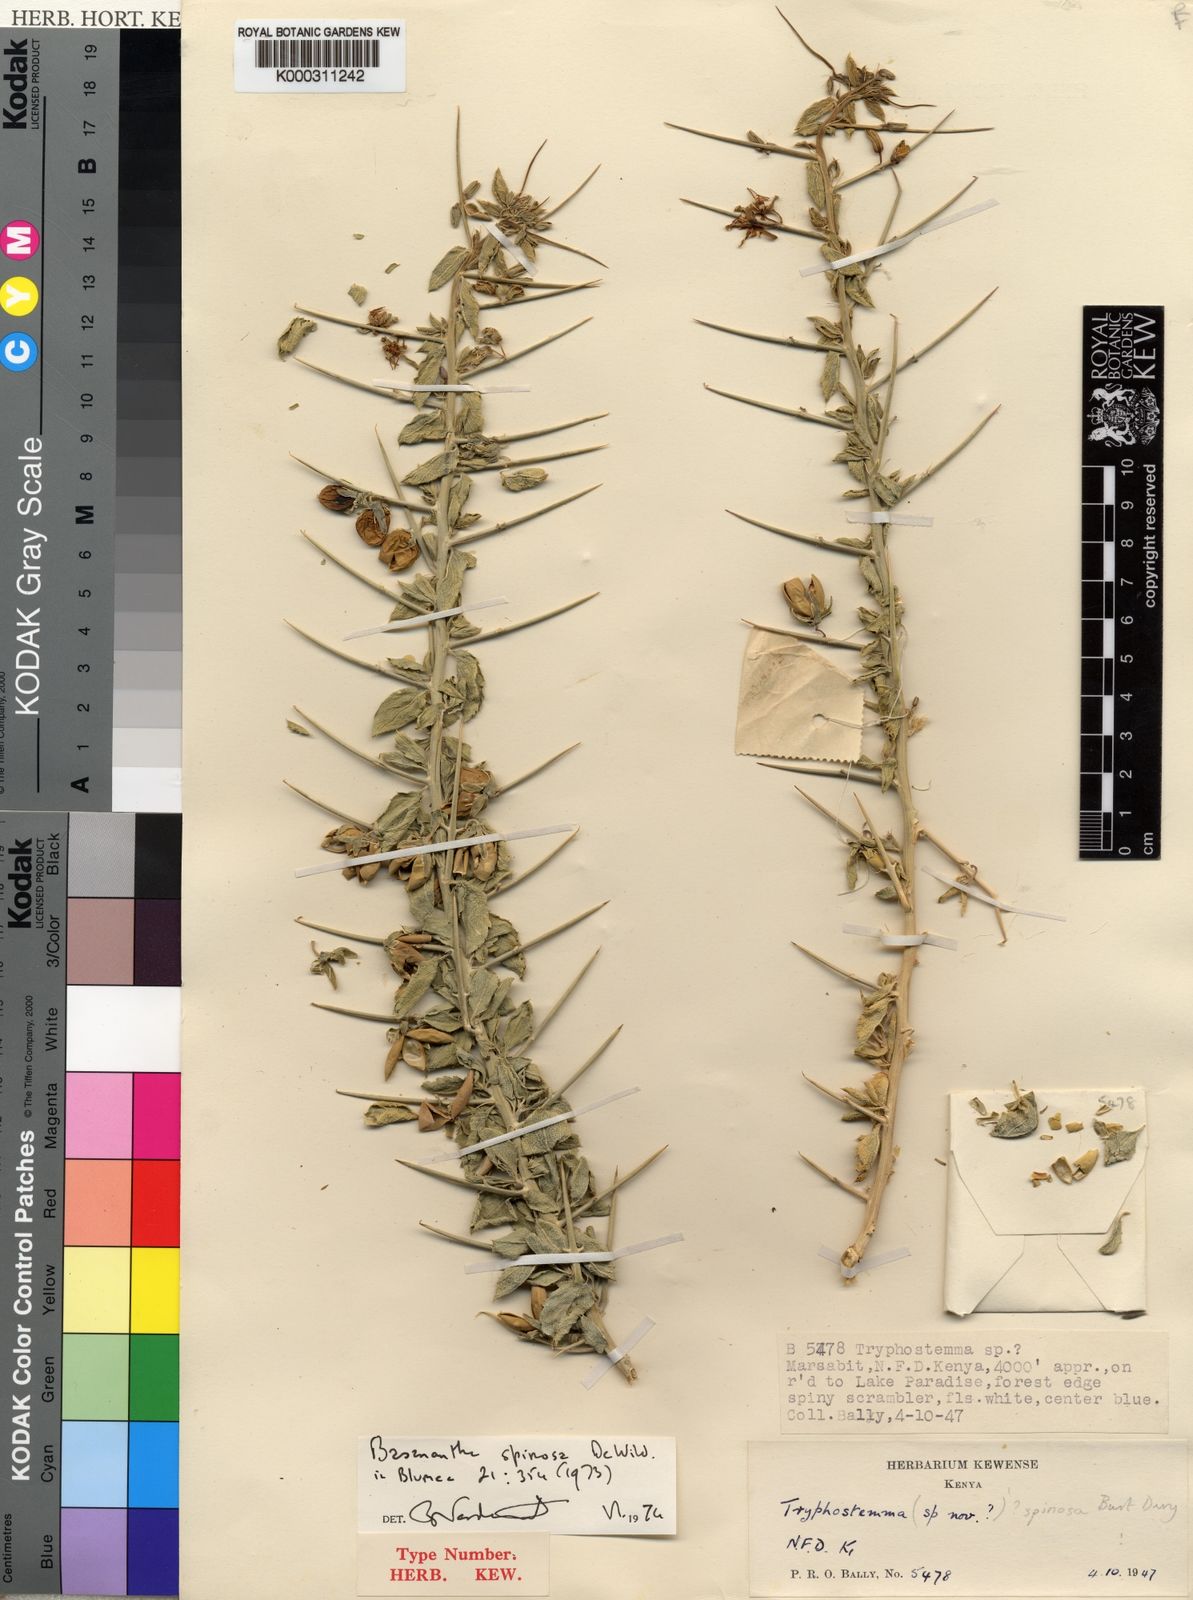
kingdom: Plantae
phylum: Tracheophyta
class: Magnoliopsida
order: Malpighiales
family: Passifloraceae
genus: Basananthe
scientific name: Basananthe spinosa
